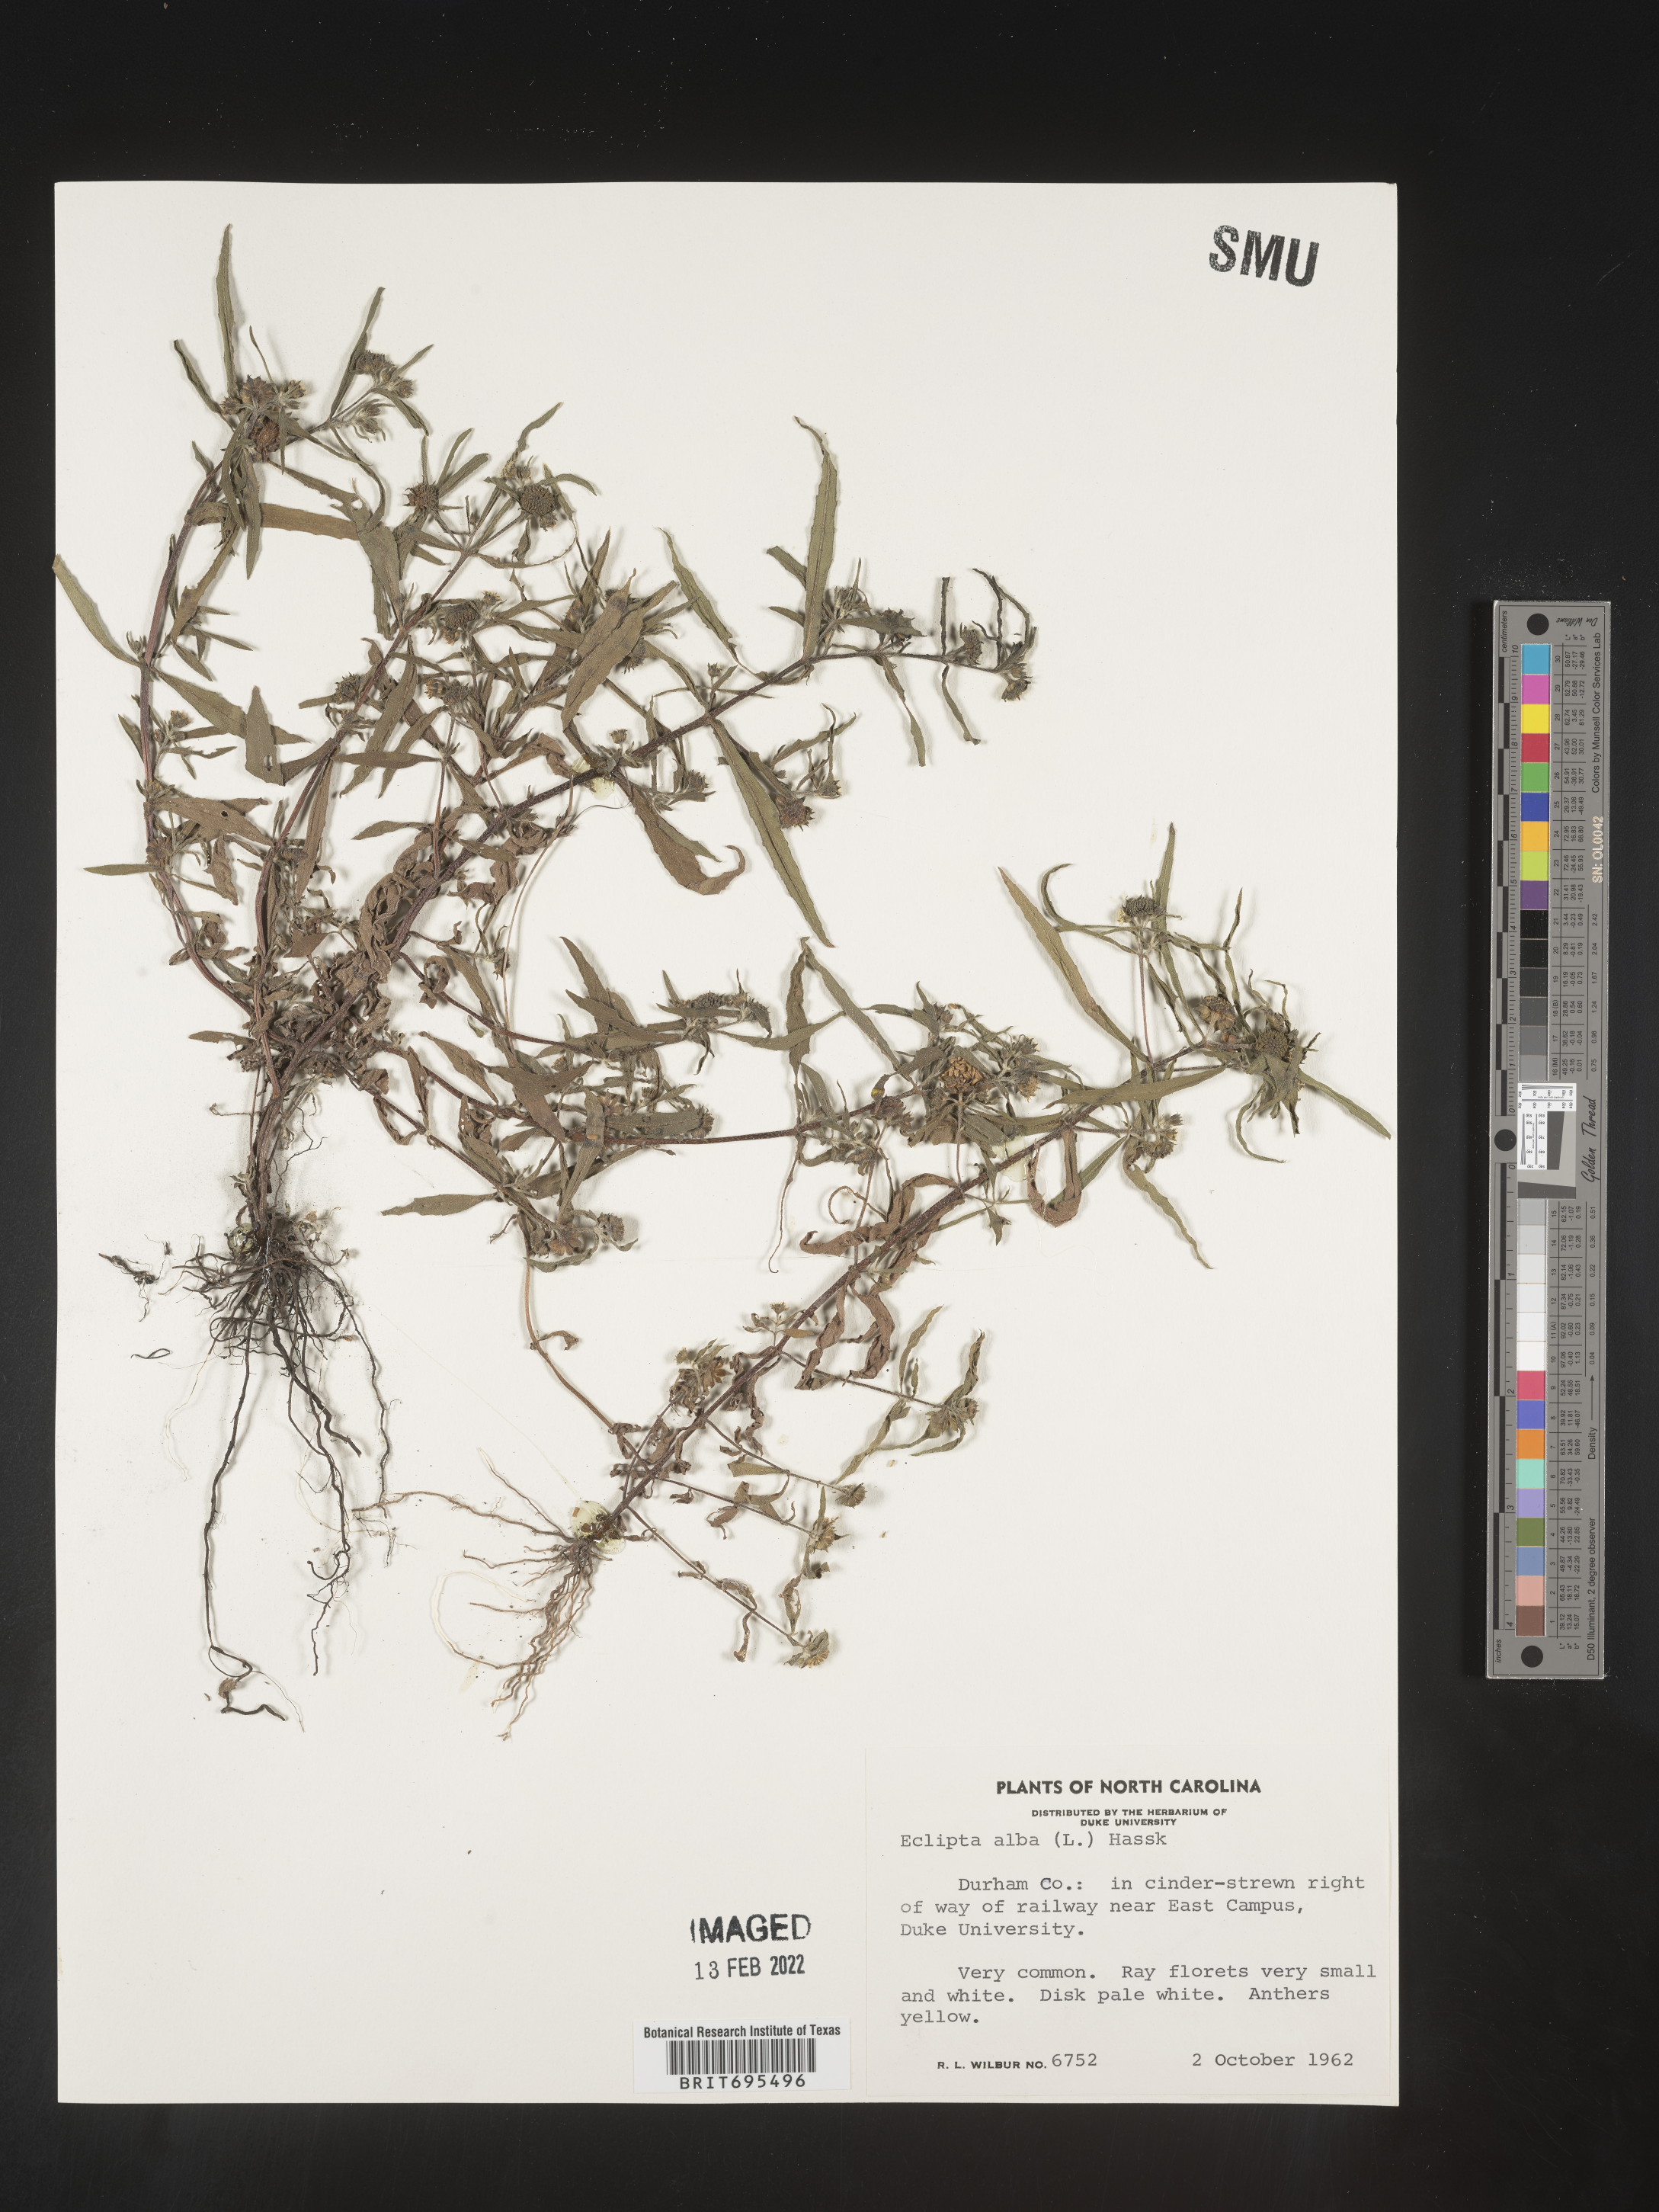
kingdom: Plantae
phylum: Tracheophyta
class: Magnoliopsida
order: Asterales
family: Asteraceae
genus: Eclipta
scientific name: Eclipta alba
